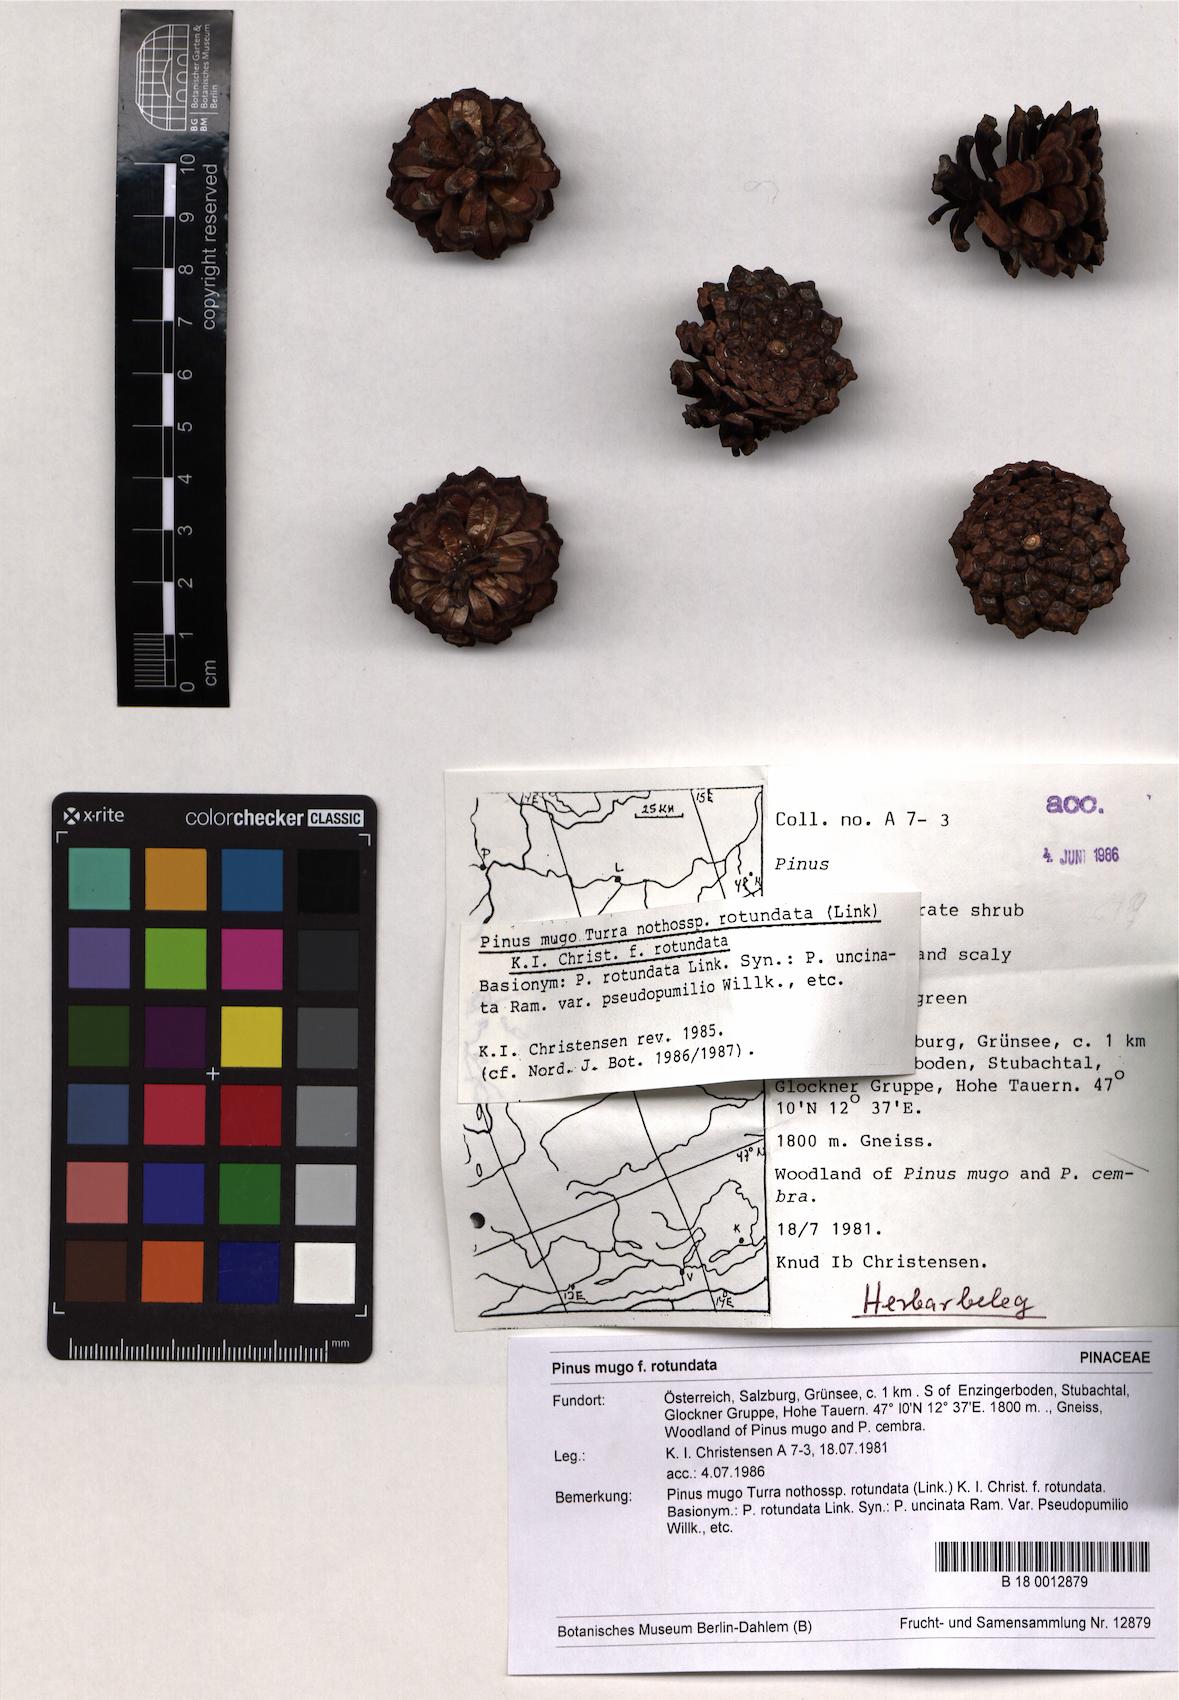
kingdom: Plantae
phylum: Tracheophyta
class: Pinopsida
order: Pinales
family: Pinaceae
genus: Pinus
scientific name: Pinus mugo
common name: Mugo pine
